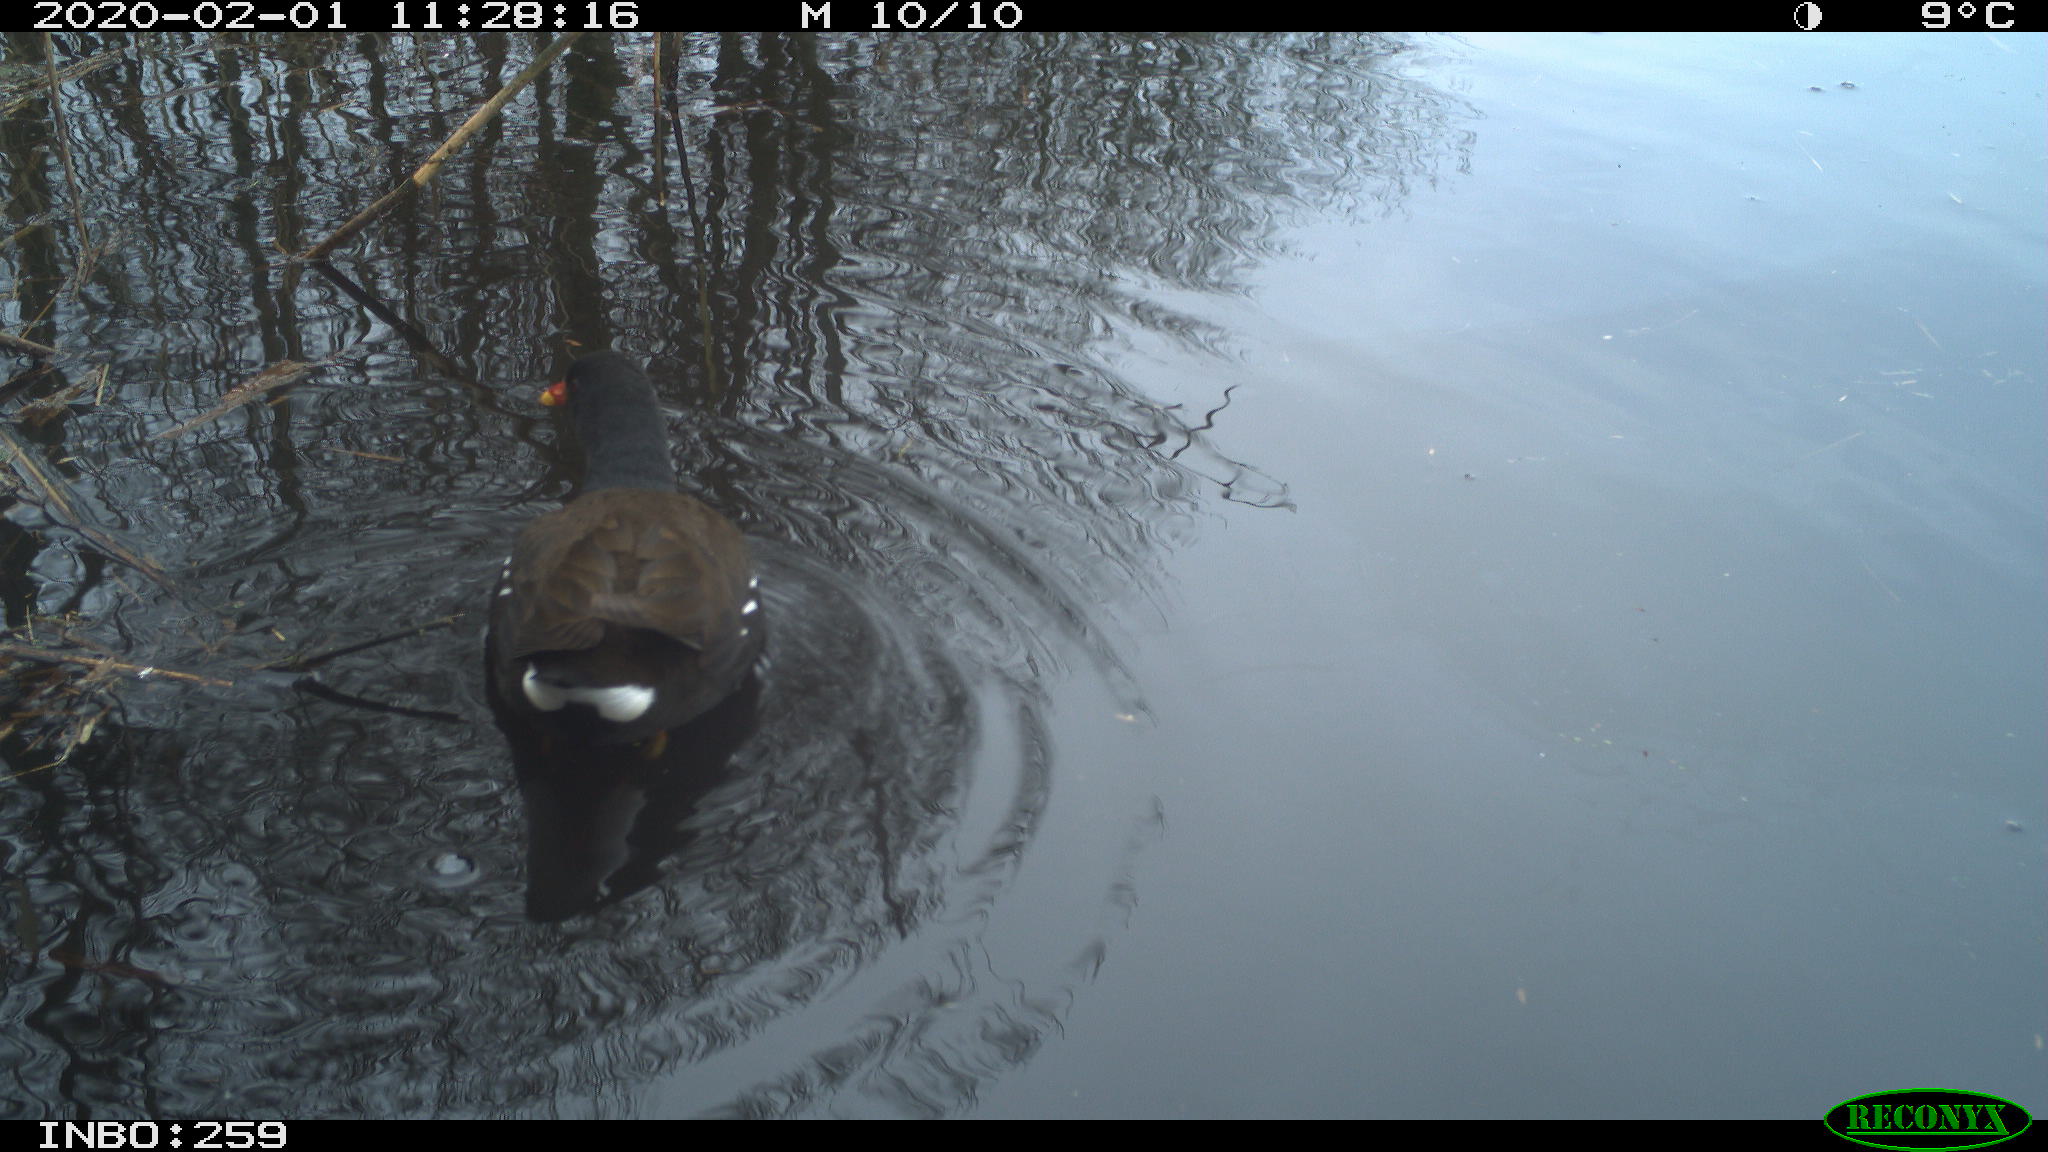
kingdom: Animalia
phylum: Chordata
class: Aves
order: Gruiformes
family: Rallidae
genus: Gallinula
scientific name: Gallinula chloropus
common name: Common moorhen
